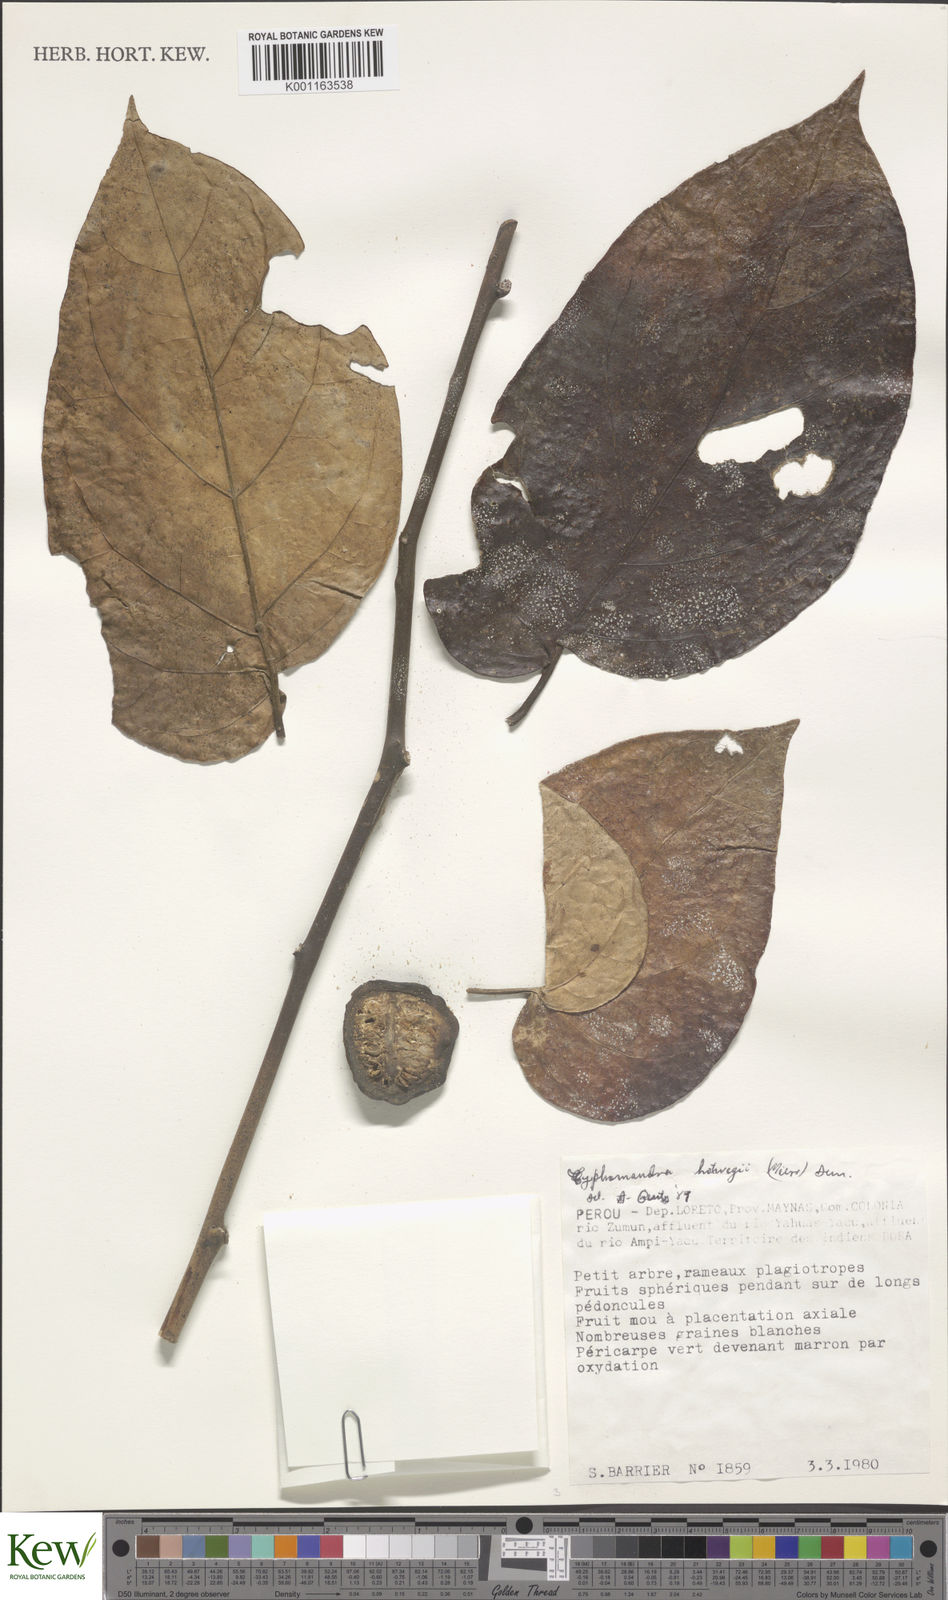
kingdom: Plantae
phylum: Tracheophyta
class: Magnoliopsida
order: Solanales
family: Solanaceae
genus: Solanum
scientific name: Solanum splendens
